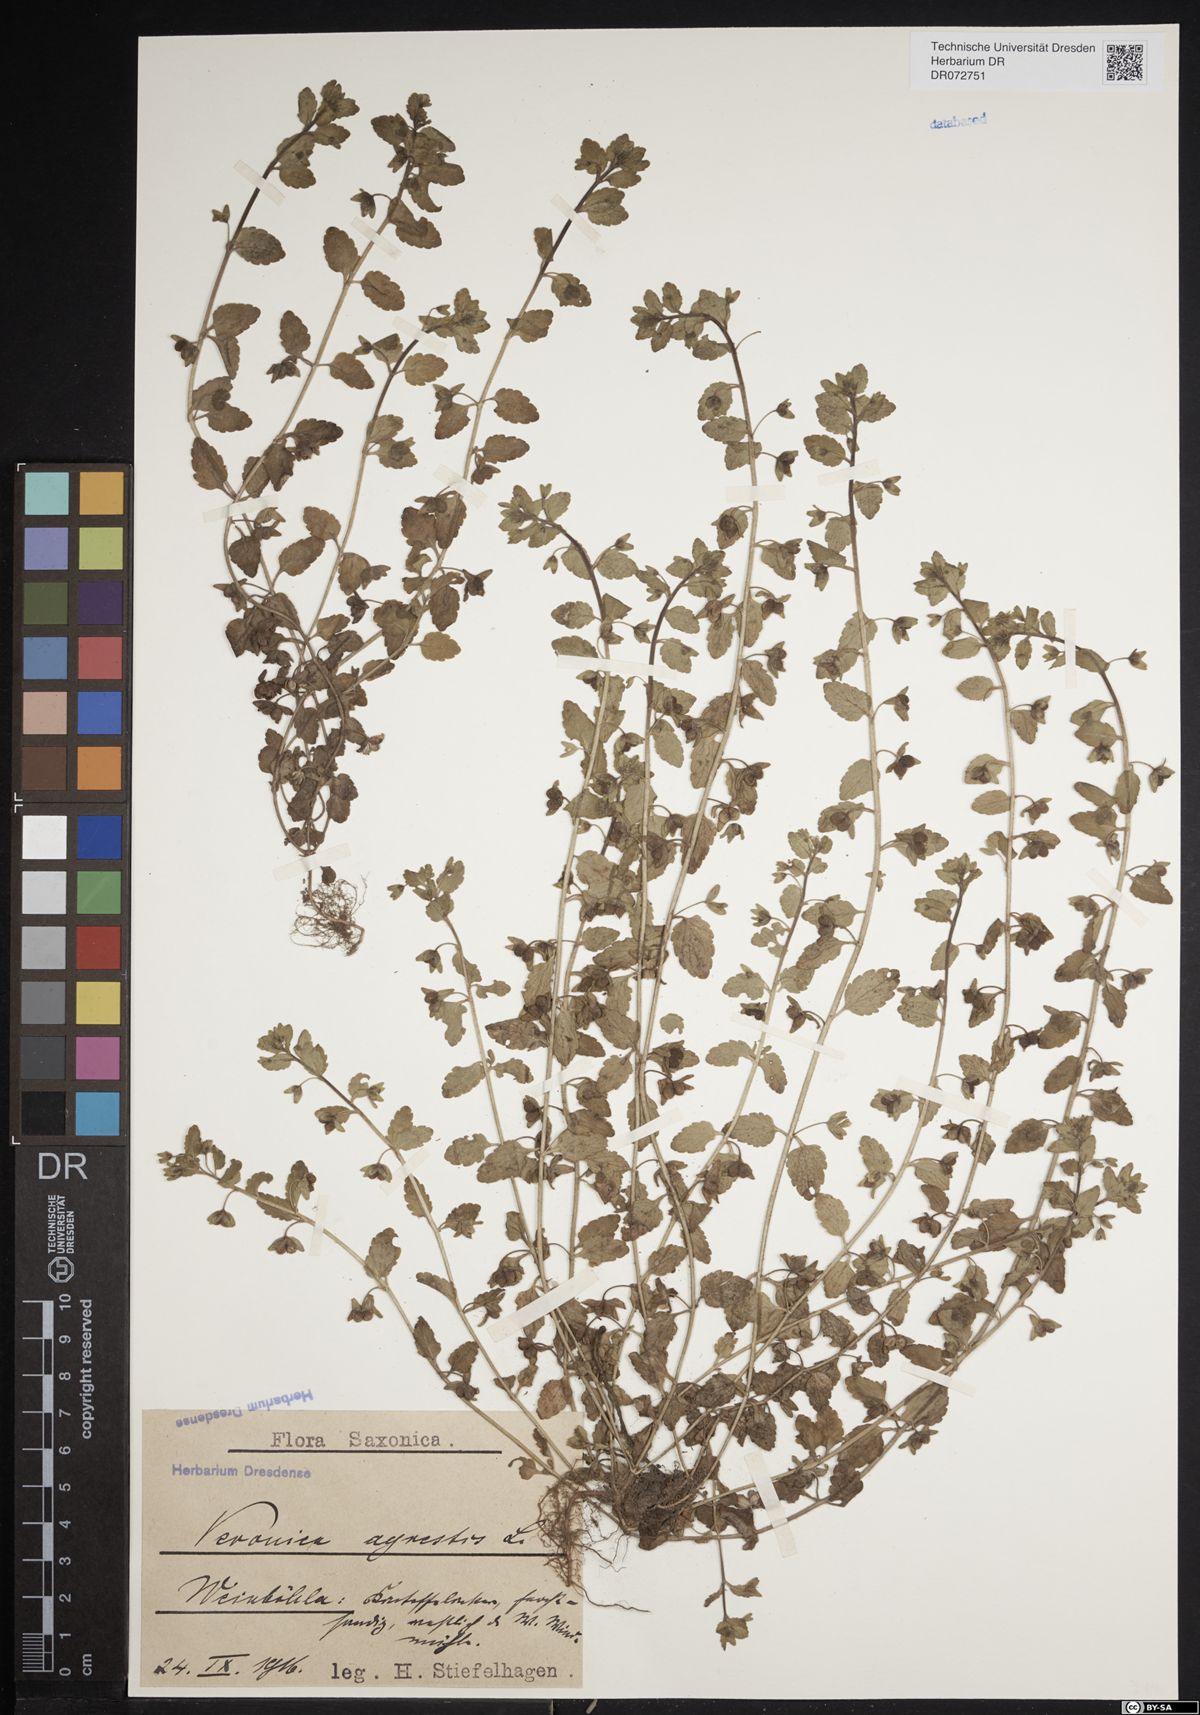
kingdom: Plantae
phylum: Tracheophyta
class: Magnoliopsida
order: Lamiales
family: Plantaginaceae
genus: Veronica
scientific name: Veronica agrestis
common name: Green field-speedwell
